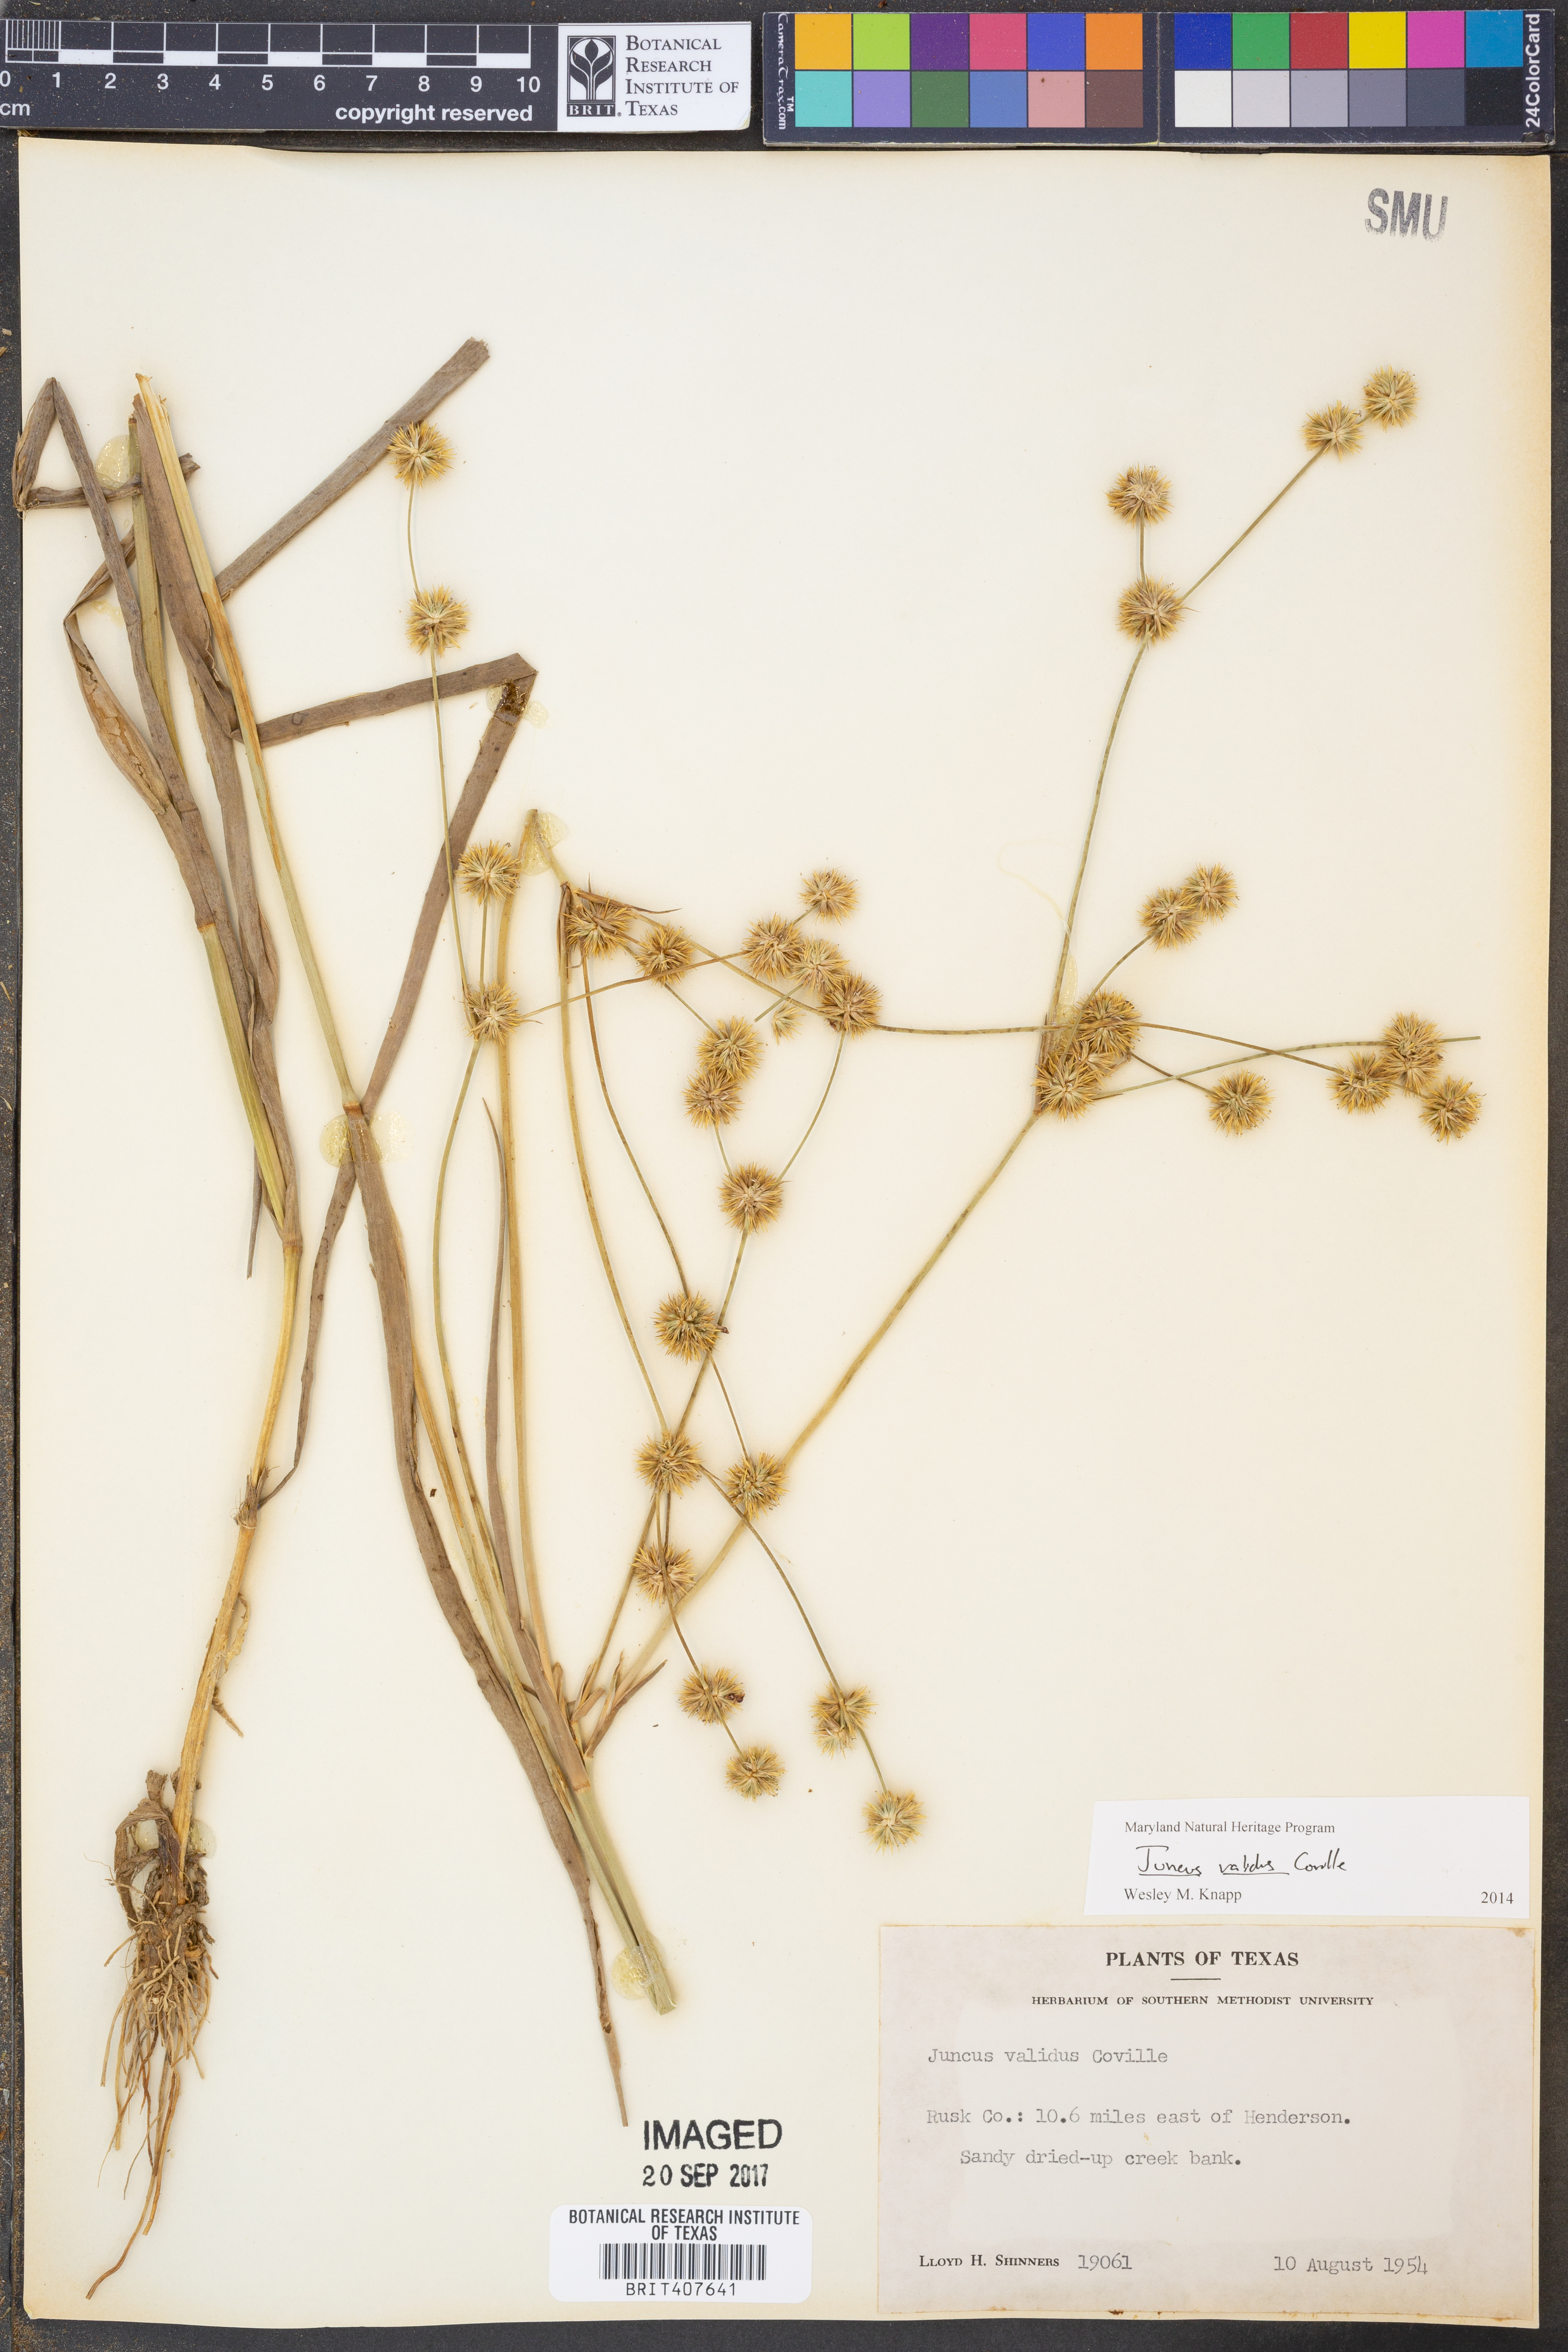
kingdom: Plantae
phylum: Tracheophyta
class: Liliopsida
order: Poales
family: Juncaceae
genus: Juncus
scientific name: Juncus validus
